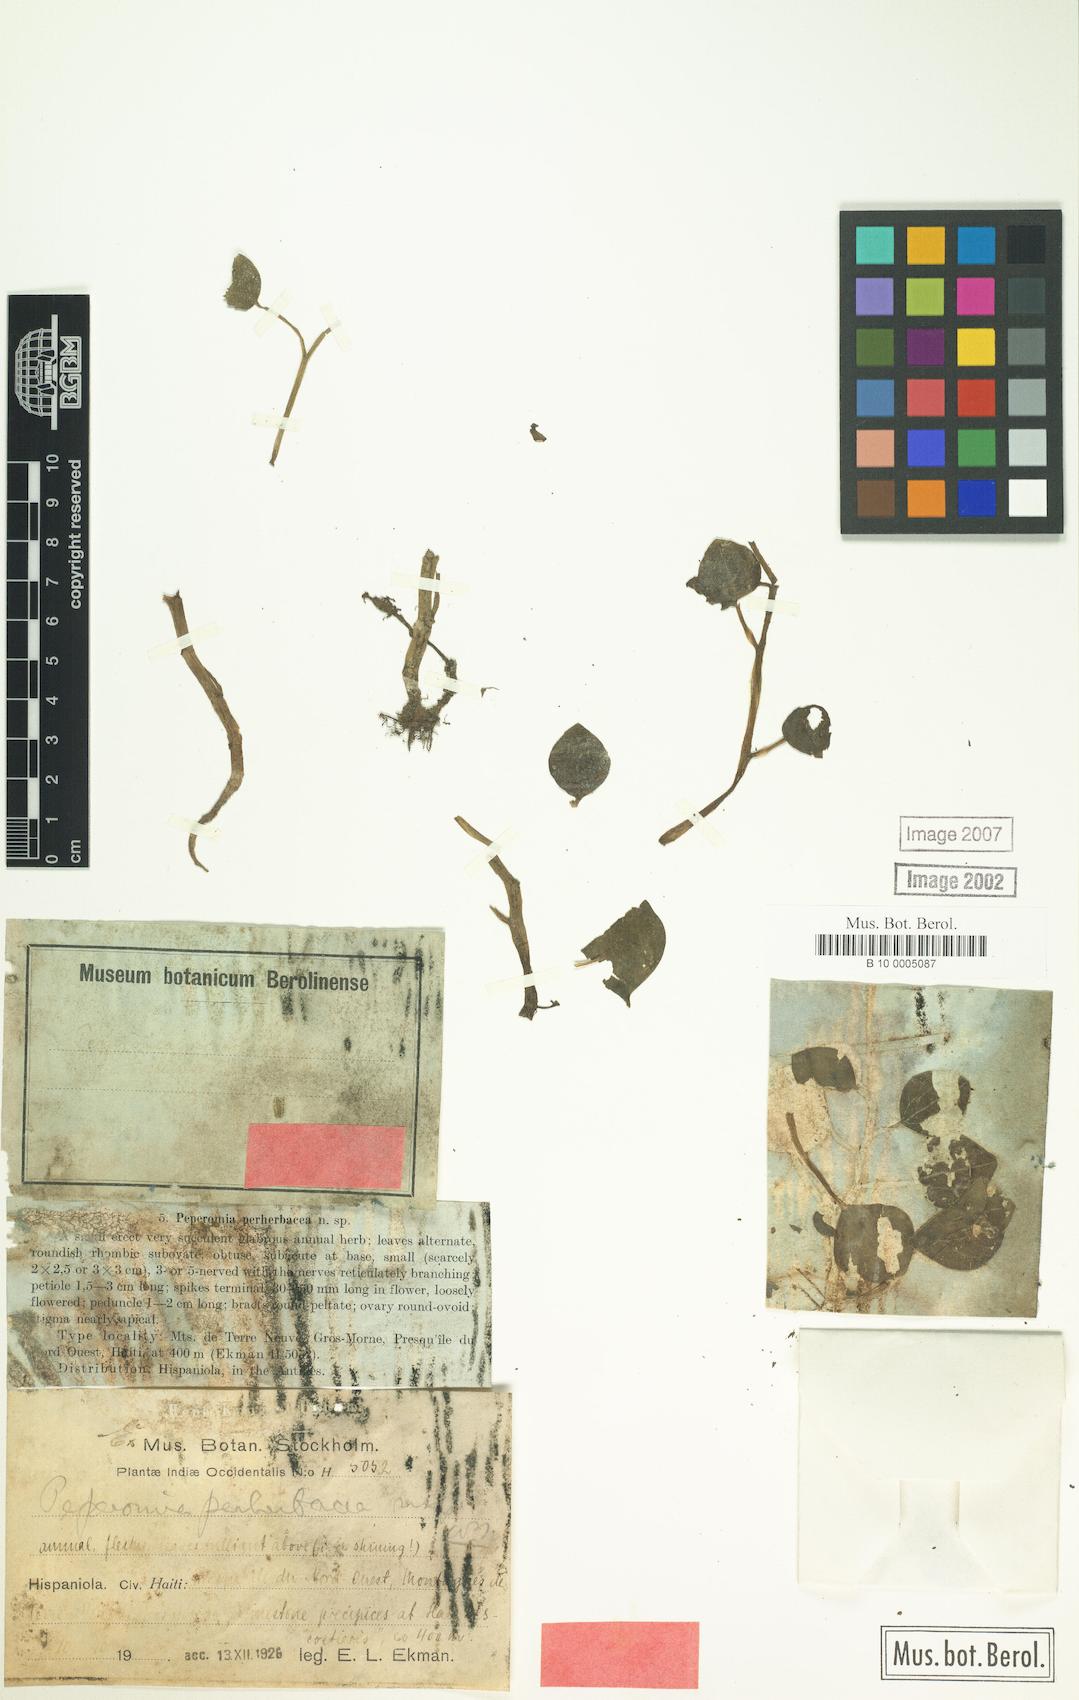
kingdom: Plantae
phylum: Tracheophyta
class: Magnoliopsida
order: Piperales
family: Piperaceae
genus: Peperomia
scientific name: Peperomia perherbacea
